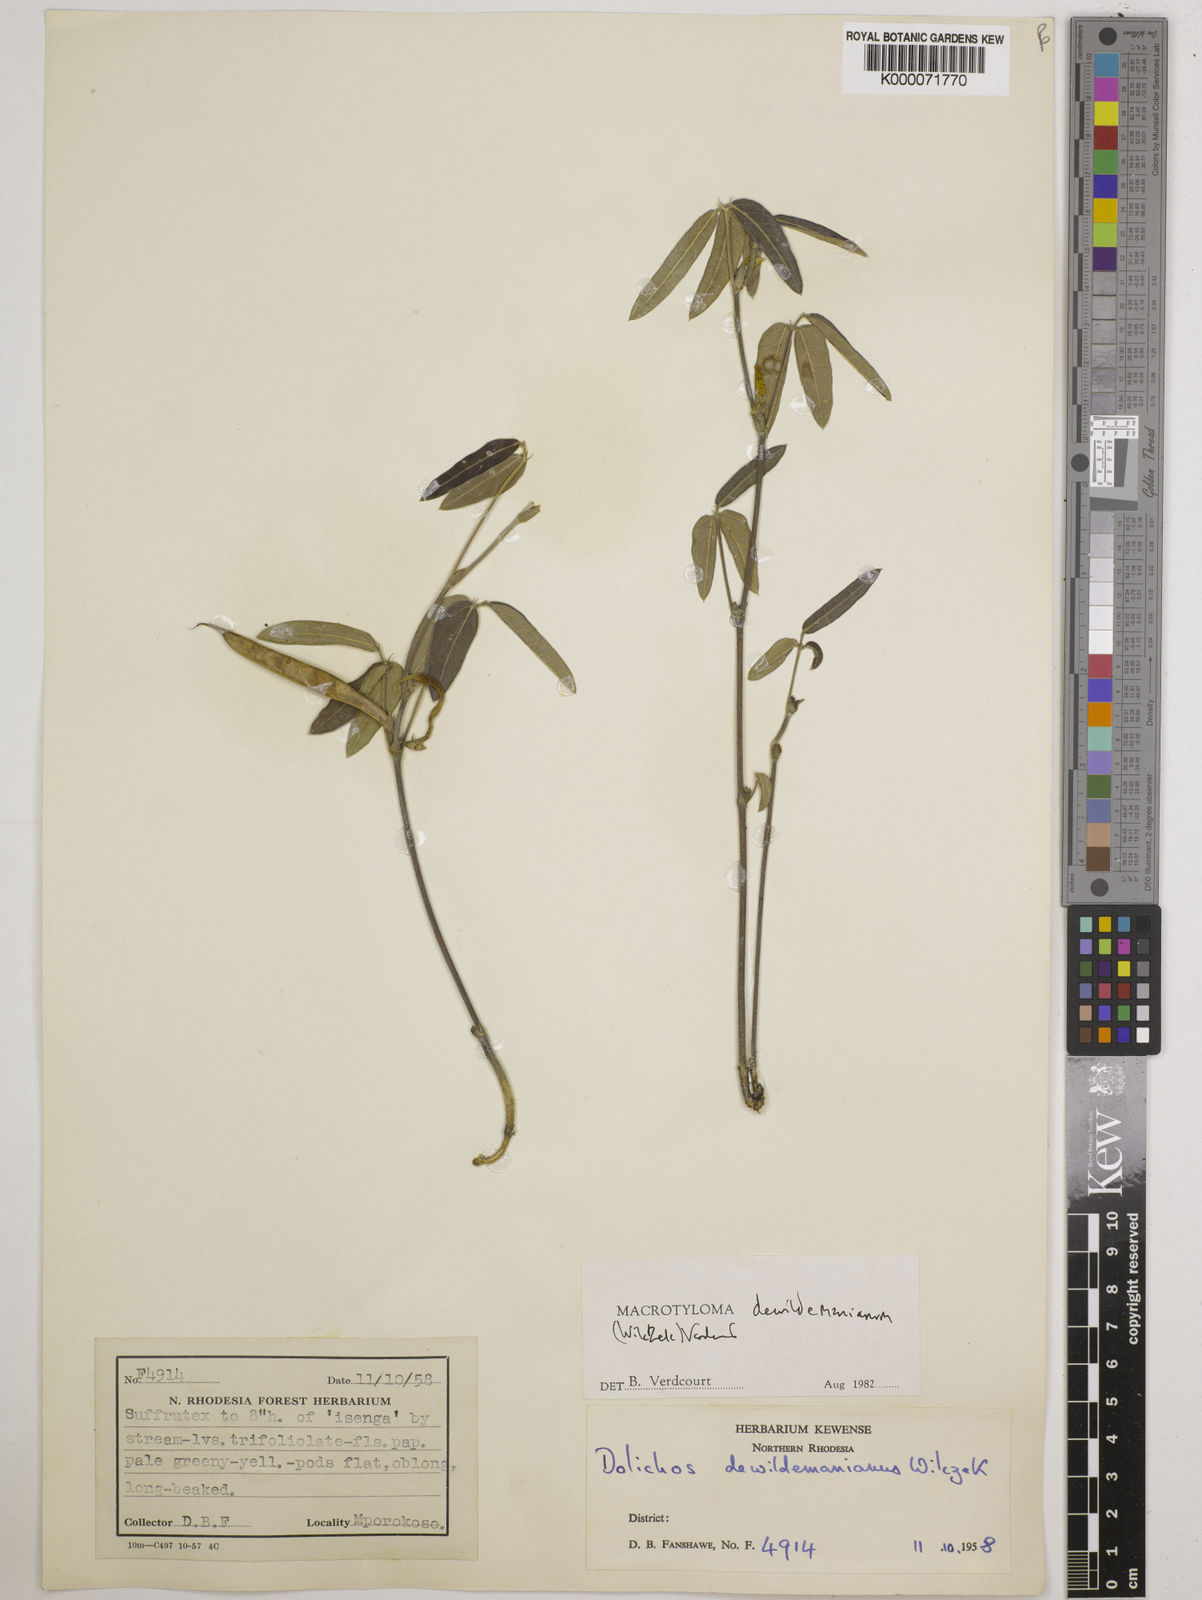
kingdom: Plantae
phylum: Tracheophyta
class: Magnoliopsida
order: Fabales
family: Fabaceae
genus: Macrotyloma
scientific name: Macrotyloma dewildemanianum
